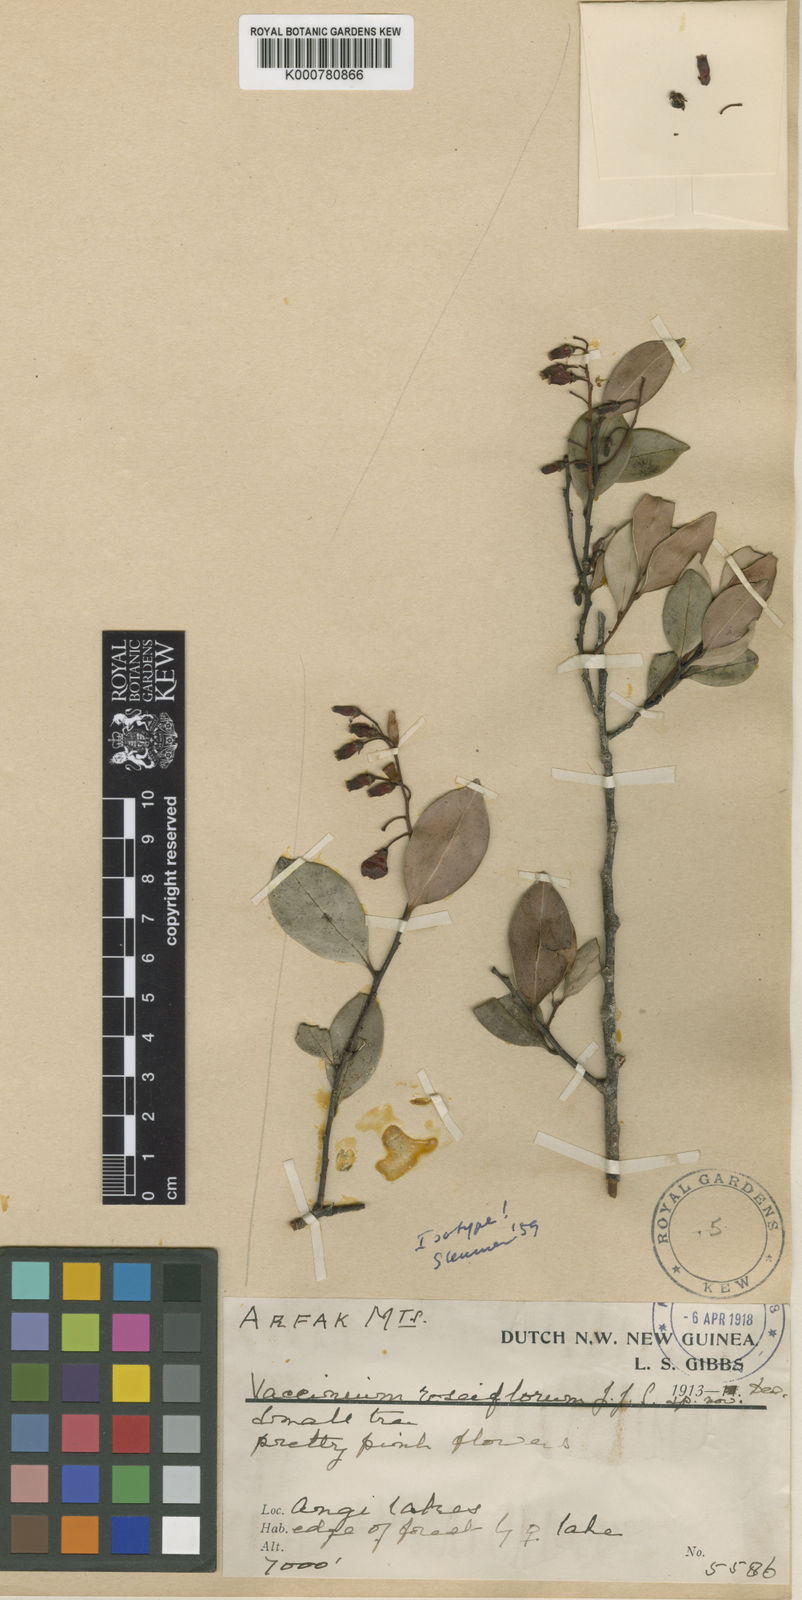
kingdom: Plantae
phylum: Tracheophyta
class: Magnoliopsida
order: Ericales
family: Ericaceae
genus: Vaccinium
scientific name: Vaccinium roseiflorum
